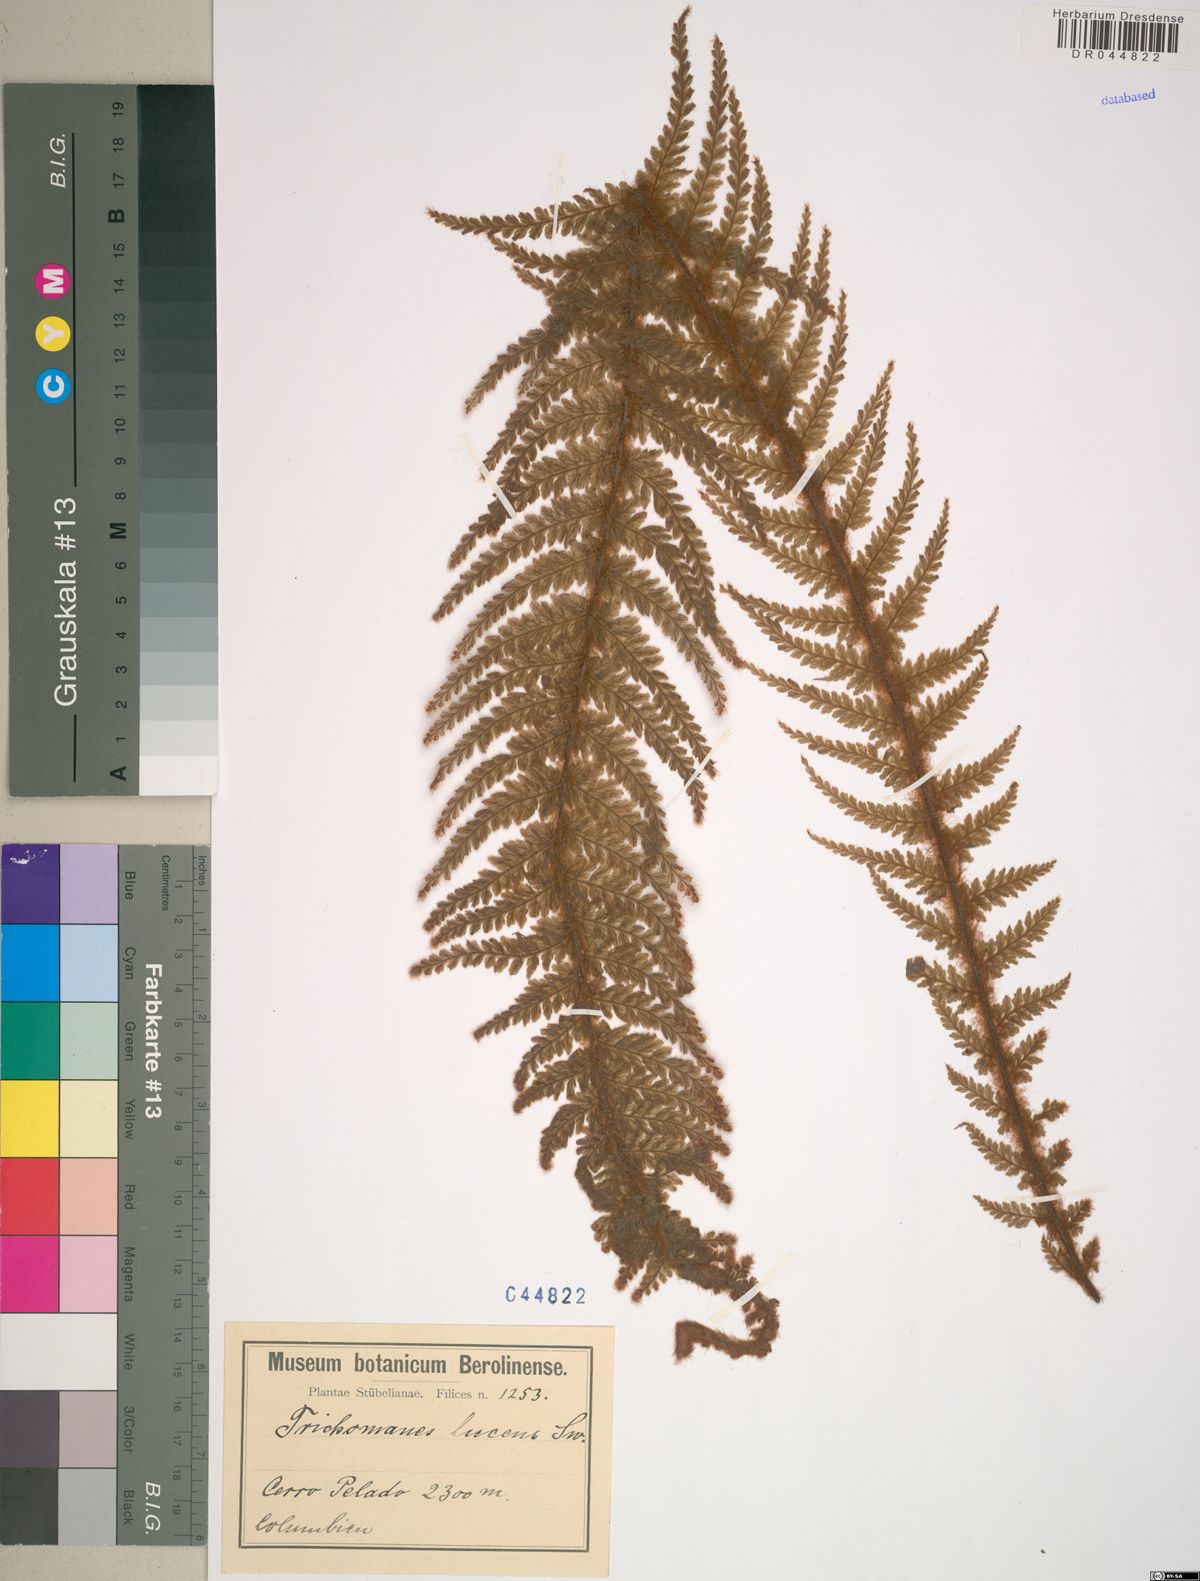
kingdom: Plantae
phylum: Tracheophyta
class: Polypodiopsida
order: Hymenophyllales
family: Hymenophyllaceae
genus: Trichomanes
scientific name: Trichomanes lucens
